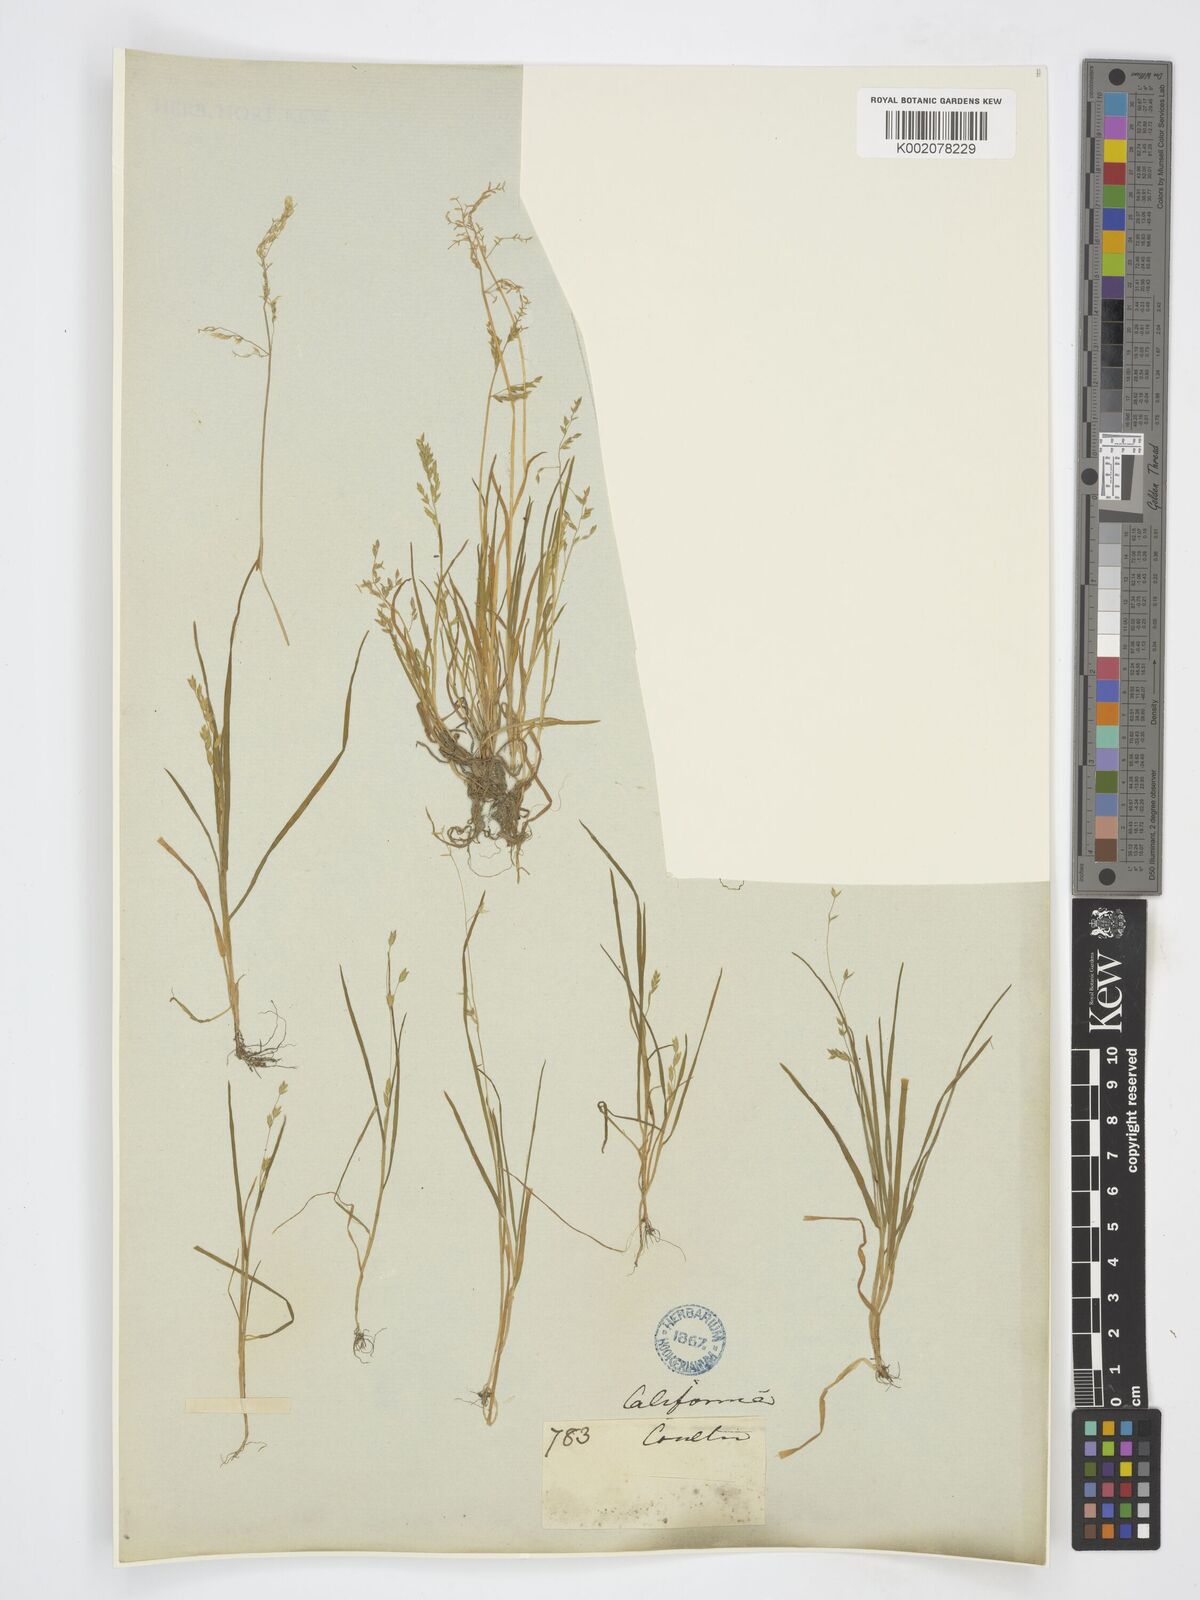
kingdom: Plantae
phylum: Tracheophyta
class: Liliopsida
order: Poales
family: Poaceae
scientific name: Poaceae
